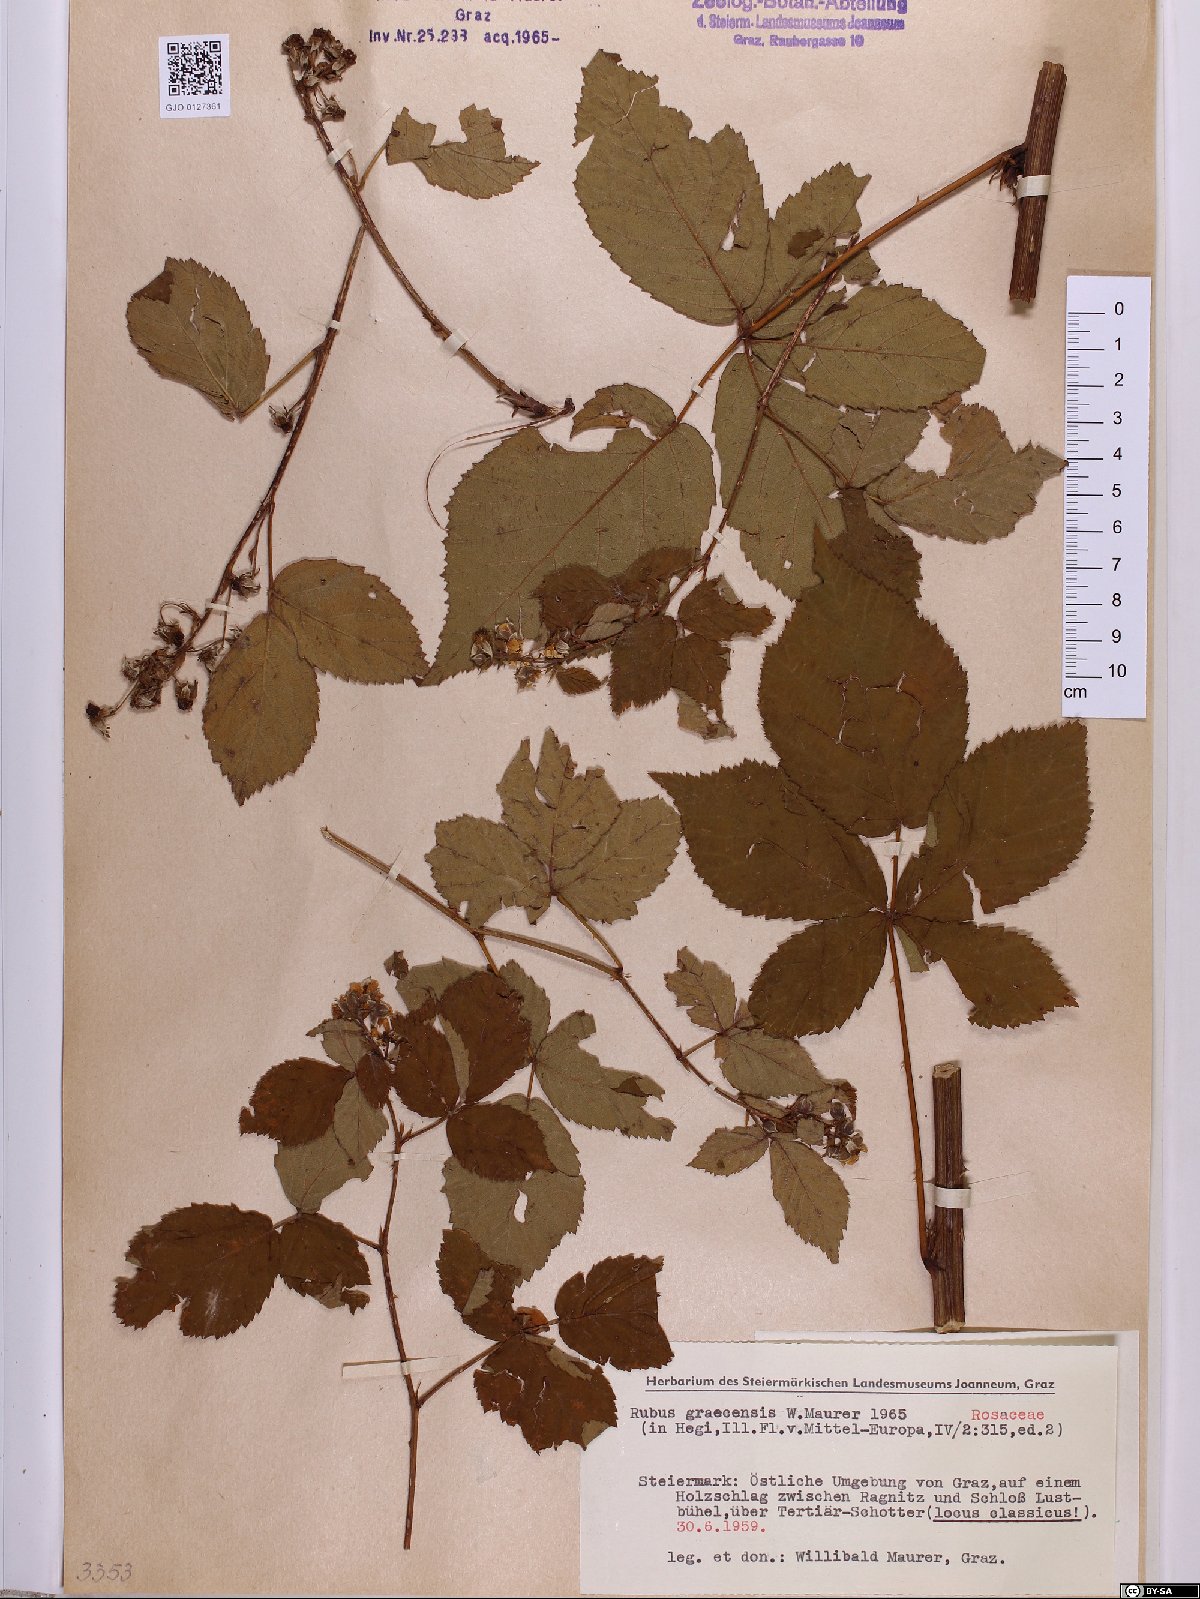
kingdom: Plantae
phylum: Tracheophyta
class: Magnoliopsida
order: Rosales
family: Rosaceae
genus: Rubus
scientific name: Rubus graecensis
